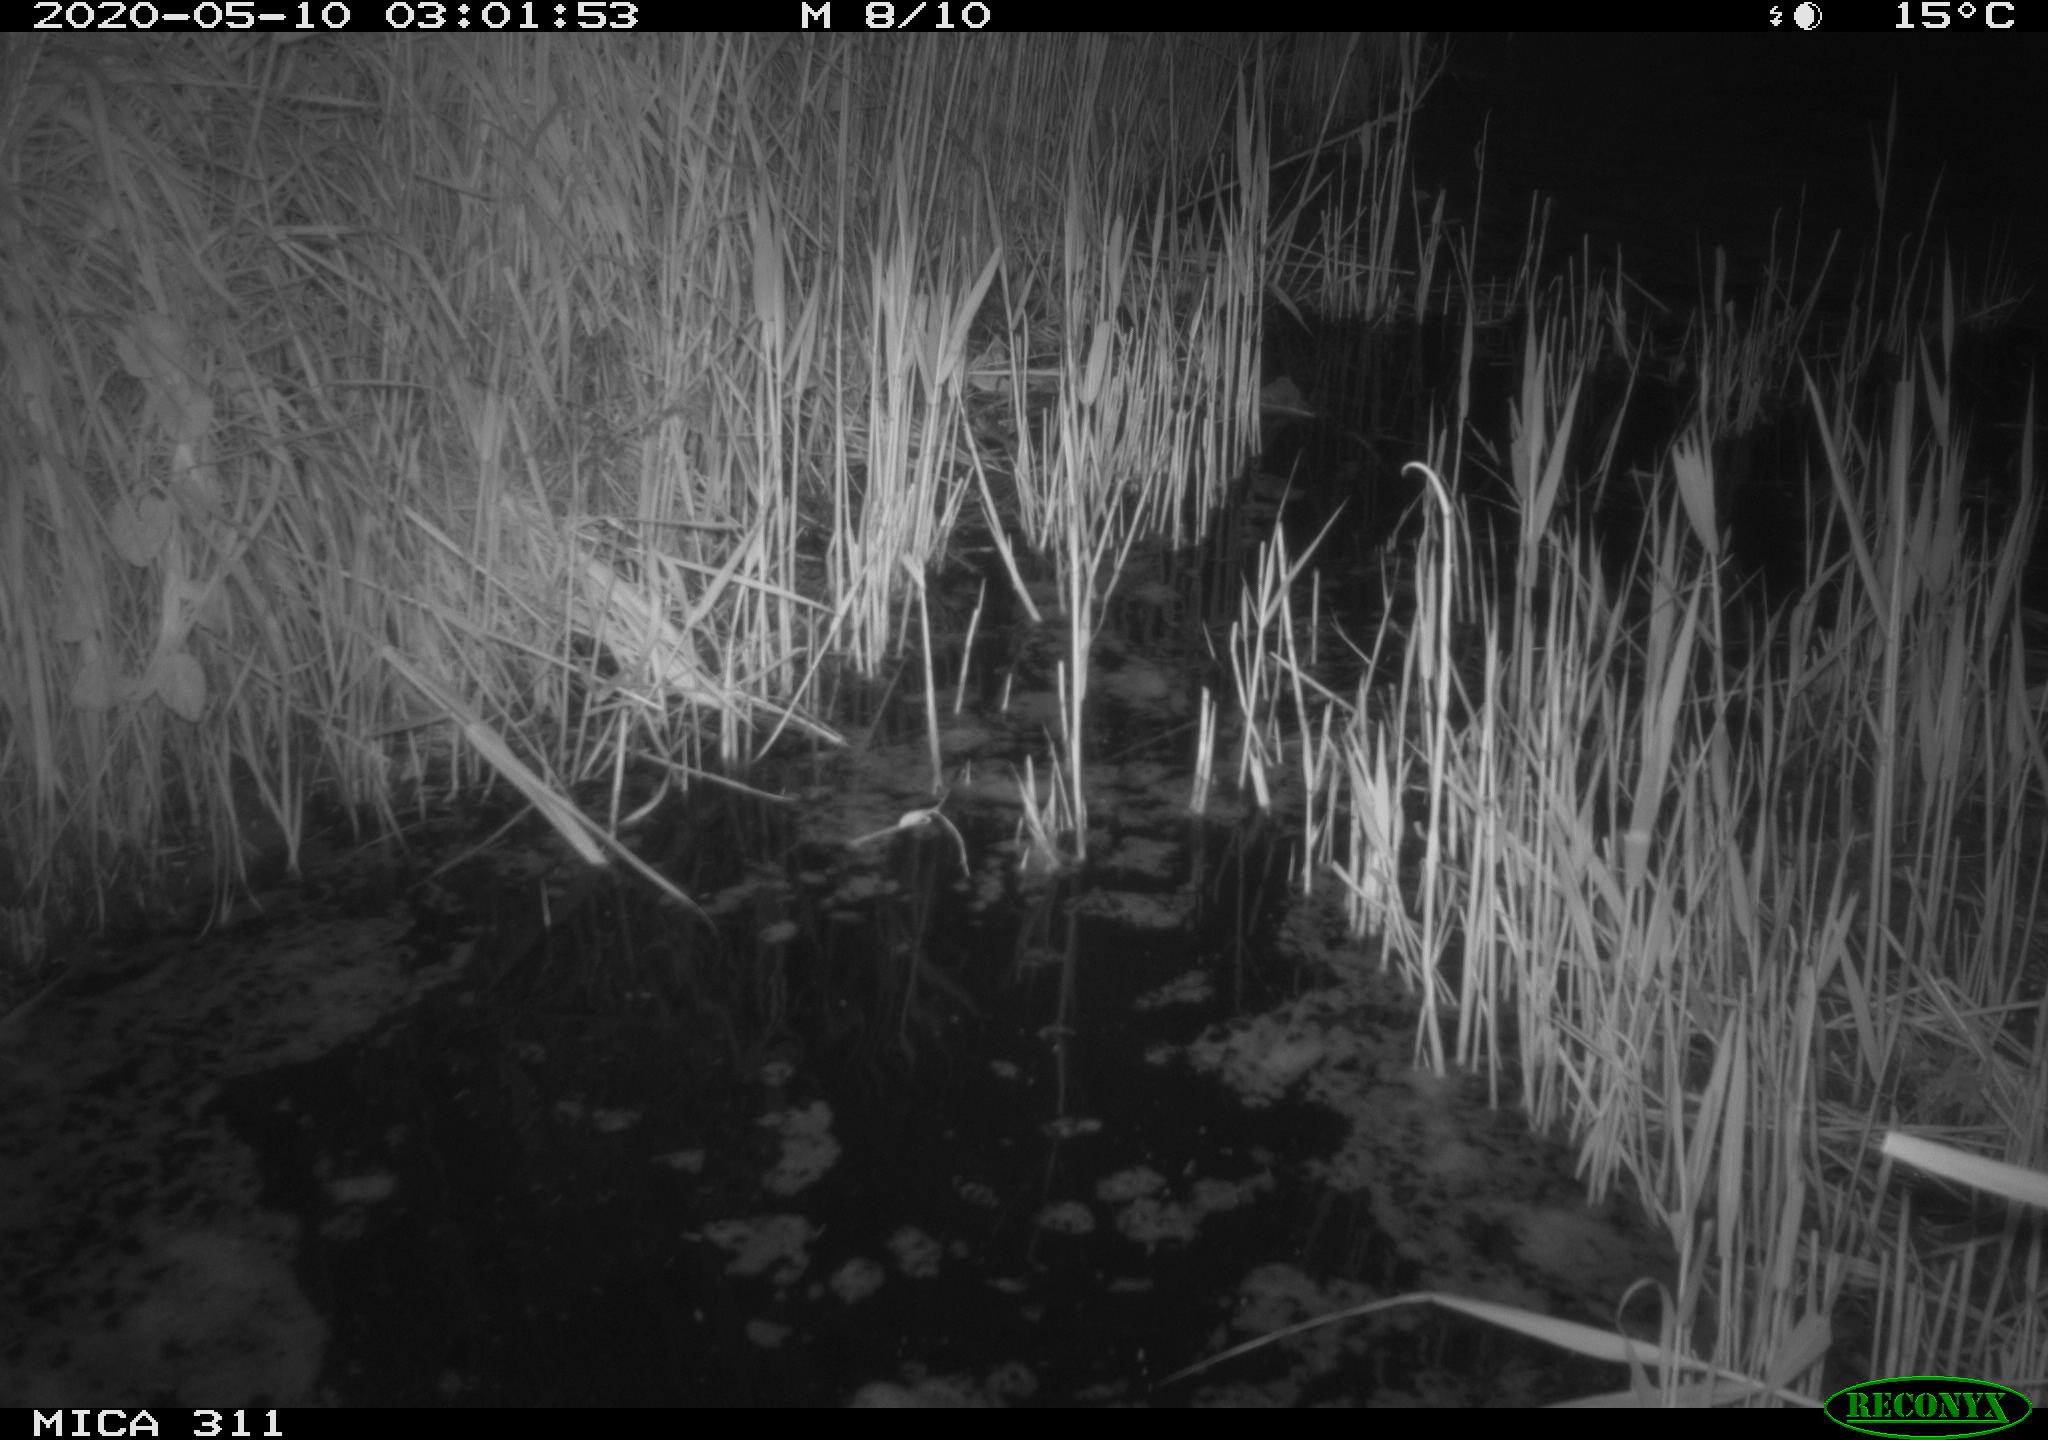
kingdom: Animalia
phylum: Chordata
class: Mammalia
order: Rodentia
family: Muridae
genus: Rattus
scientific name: Rattus norvegicus
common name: Brown rat
